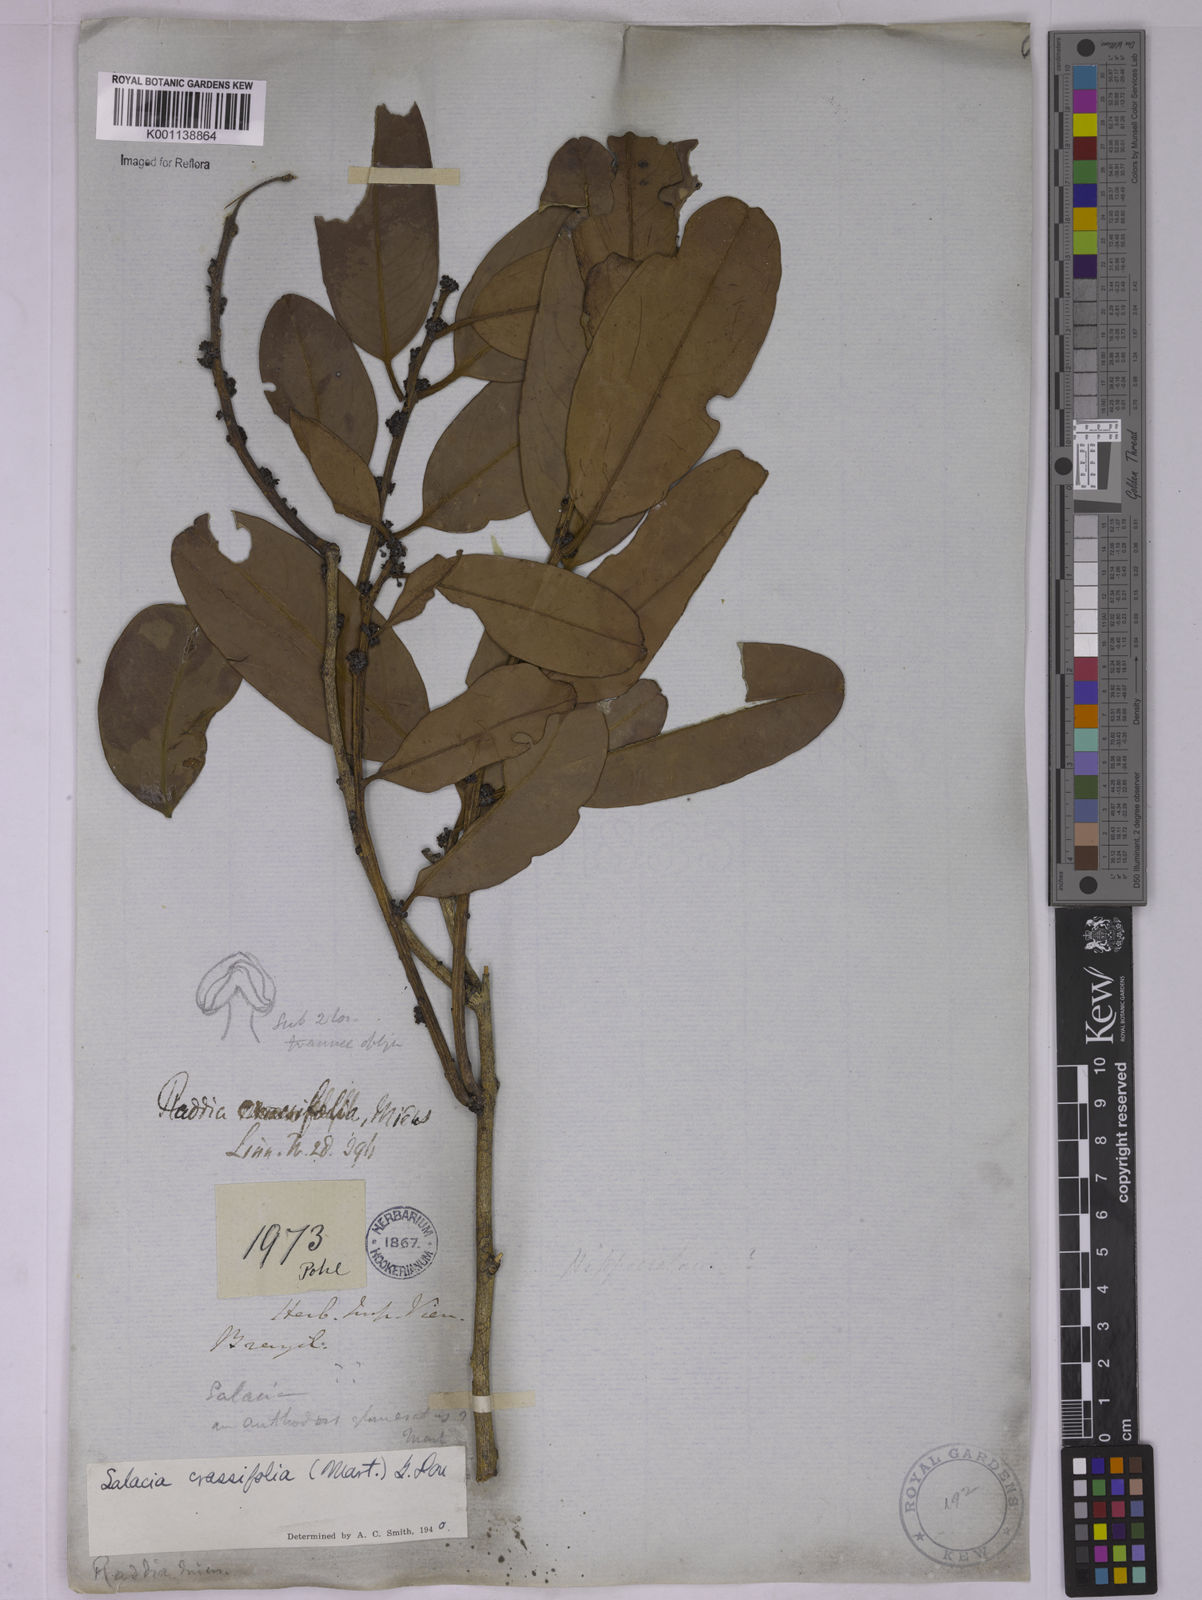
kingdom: Plantae
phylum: Tracheophyta
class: Magnoliopsida
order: Celastrales
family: Celastraceae
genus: Salacia
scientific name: Salacia crassifolia
